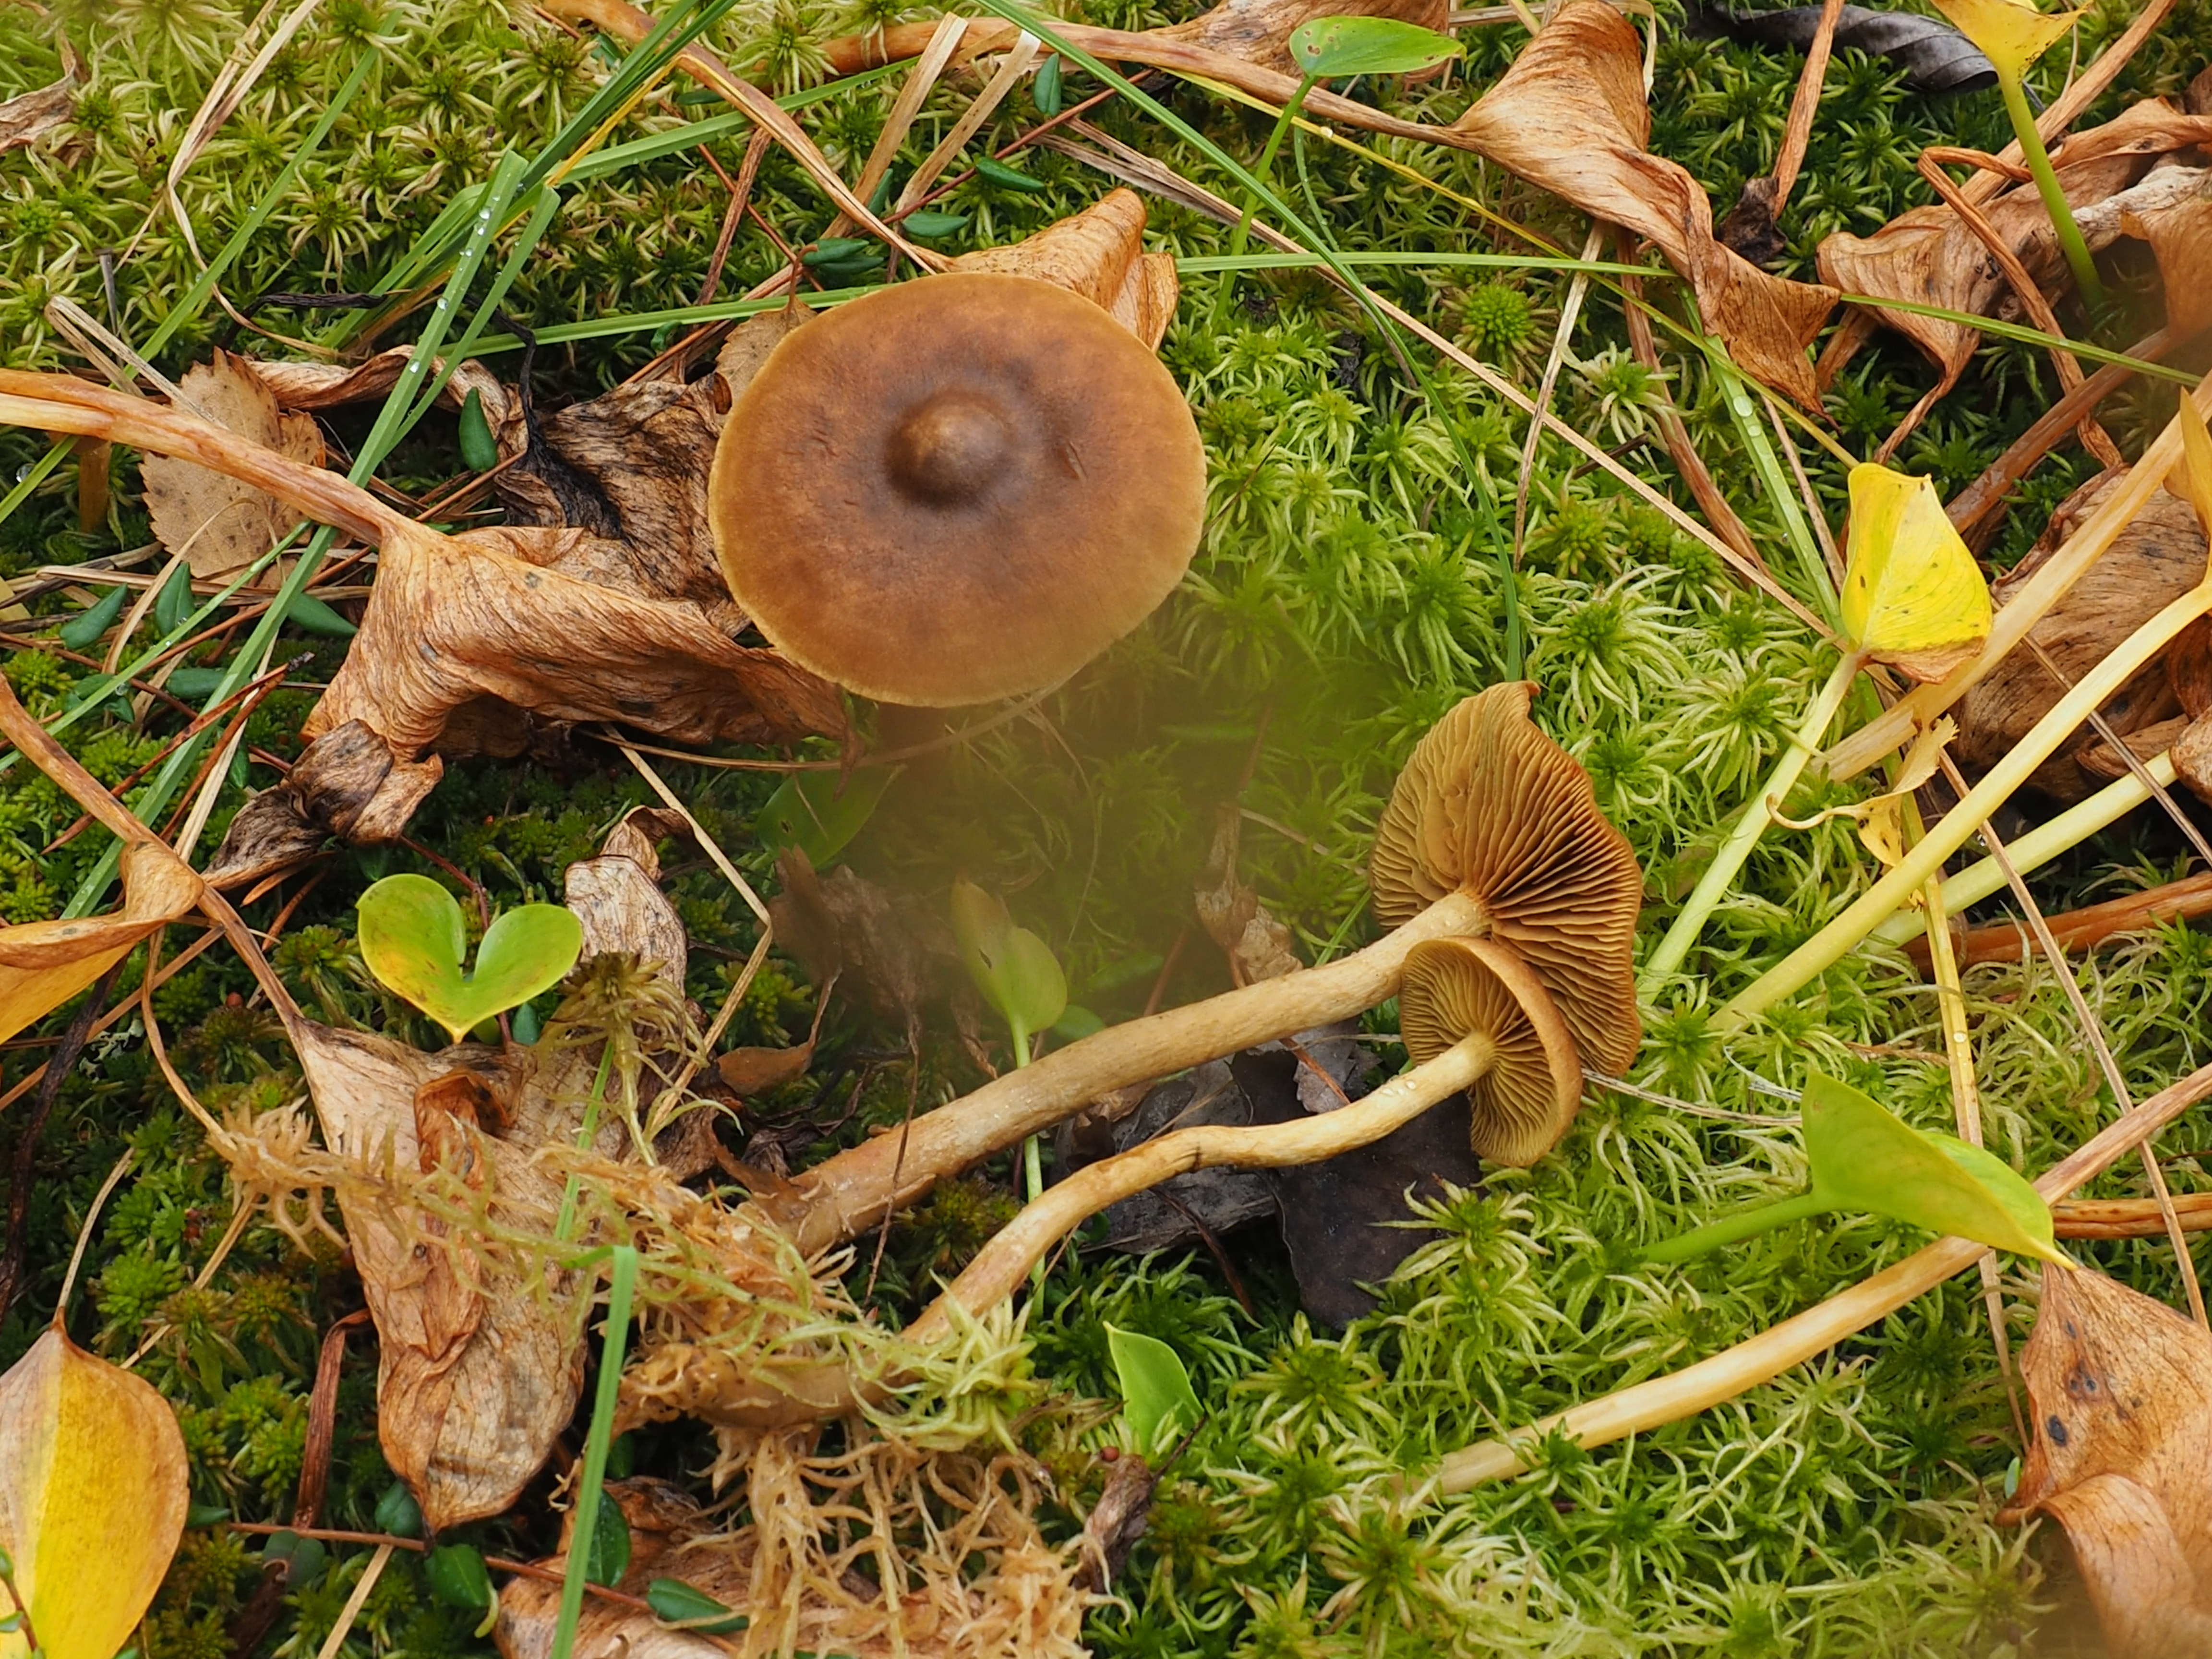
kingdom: Fungi
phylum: Basidiomycota
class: Agaricomycetes
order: Agaricales
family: Cortinariaceae
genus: Cortinarius
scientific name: Cortinarius
